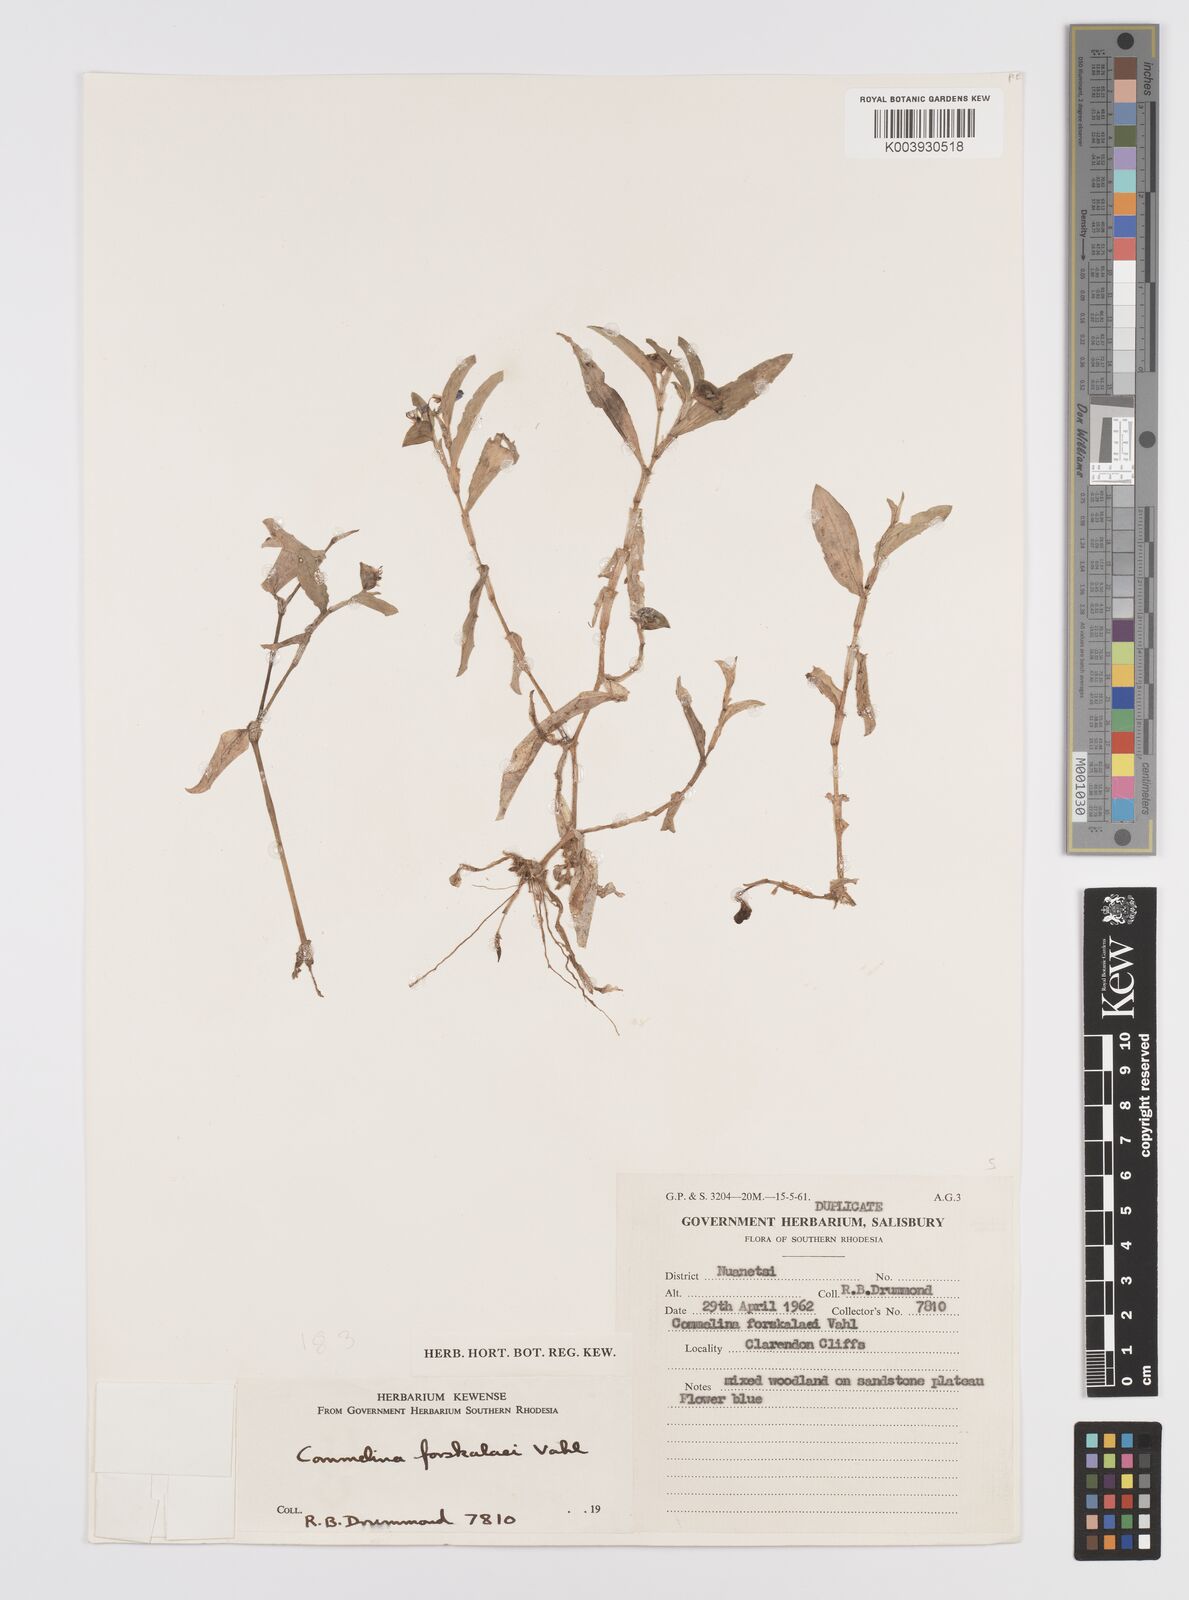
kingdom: Plantae
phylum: Tracheophyta
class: Liliopsida
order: Commelinales
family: Commelinaceae
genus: Commelina
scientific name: Commelina forskaolii
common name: Rat's ear
